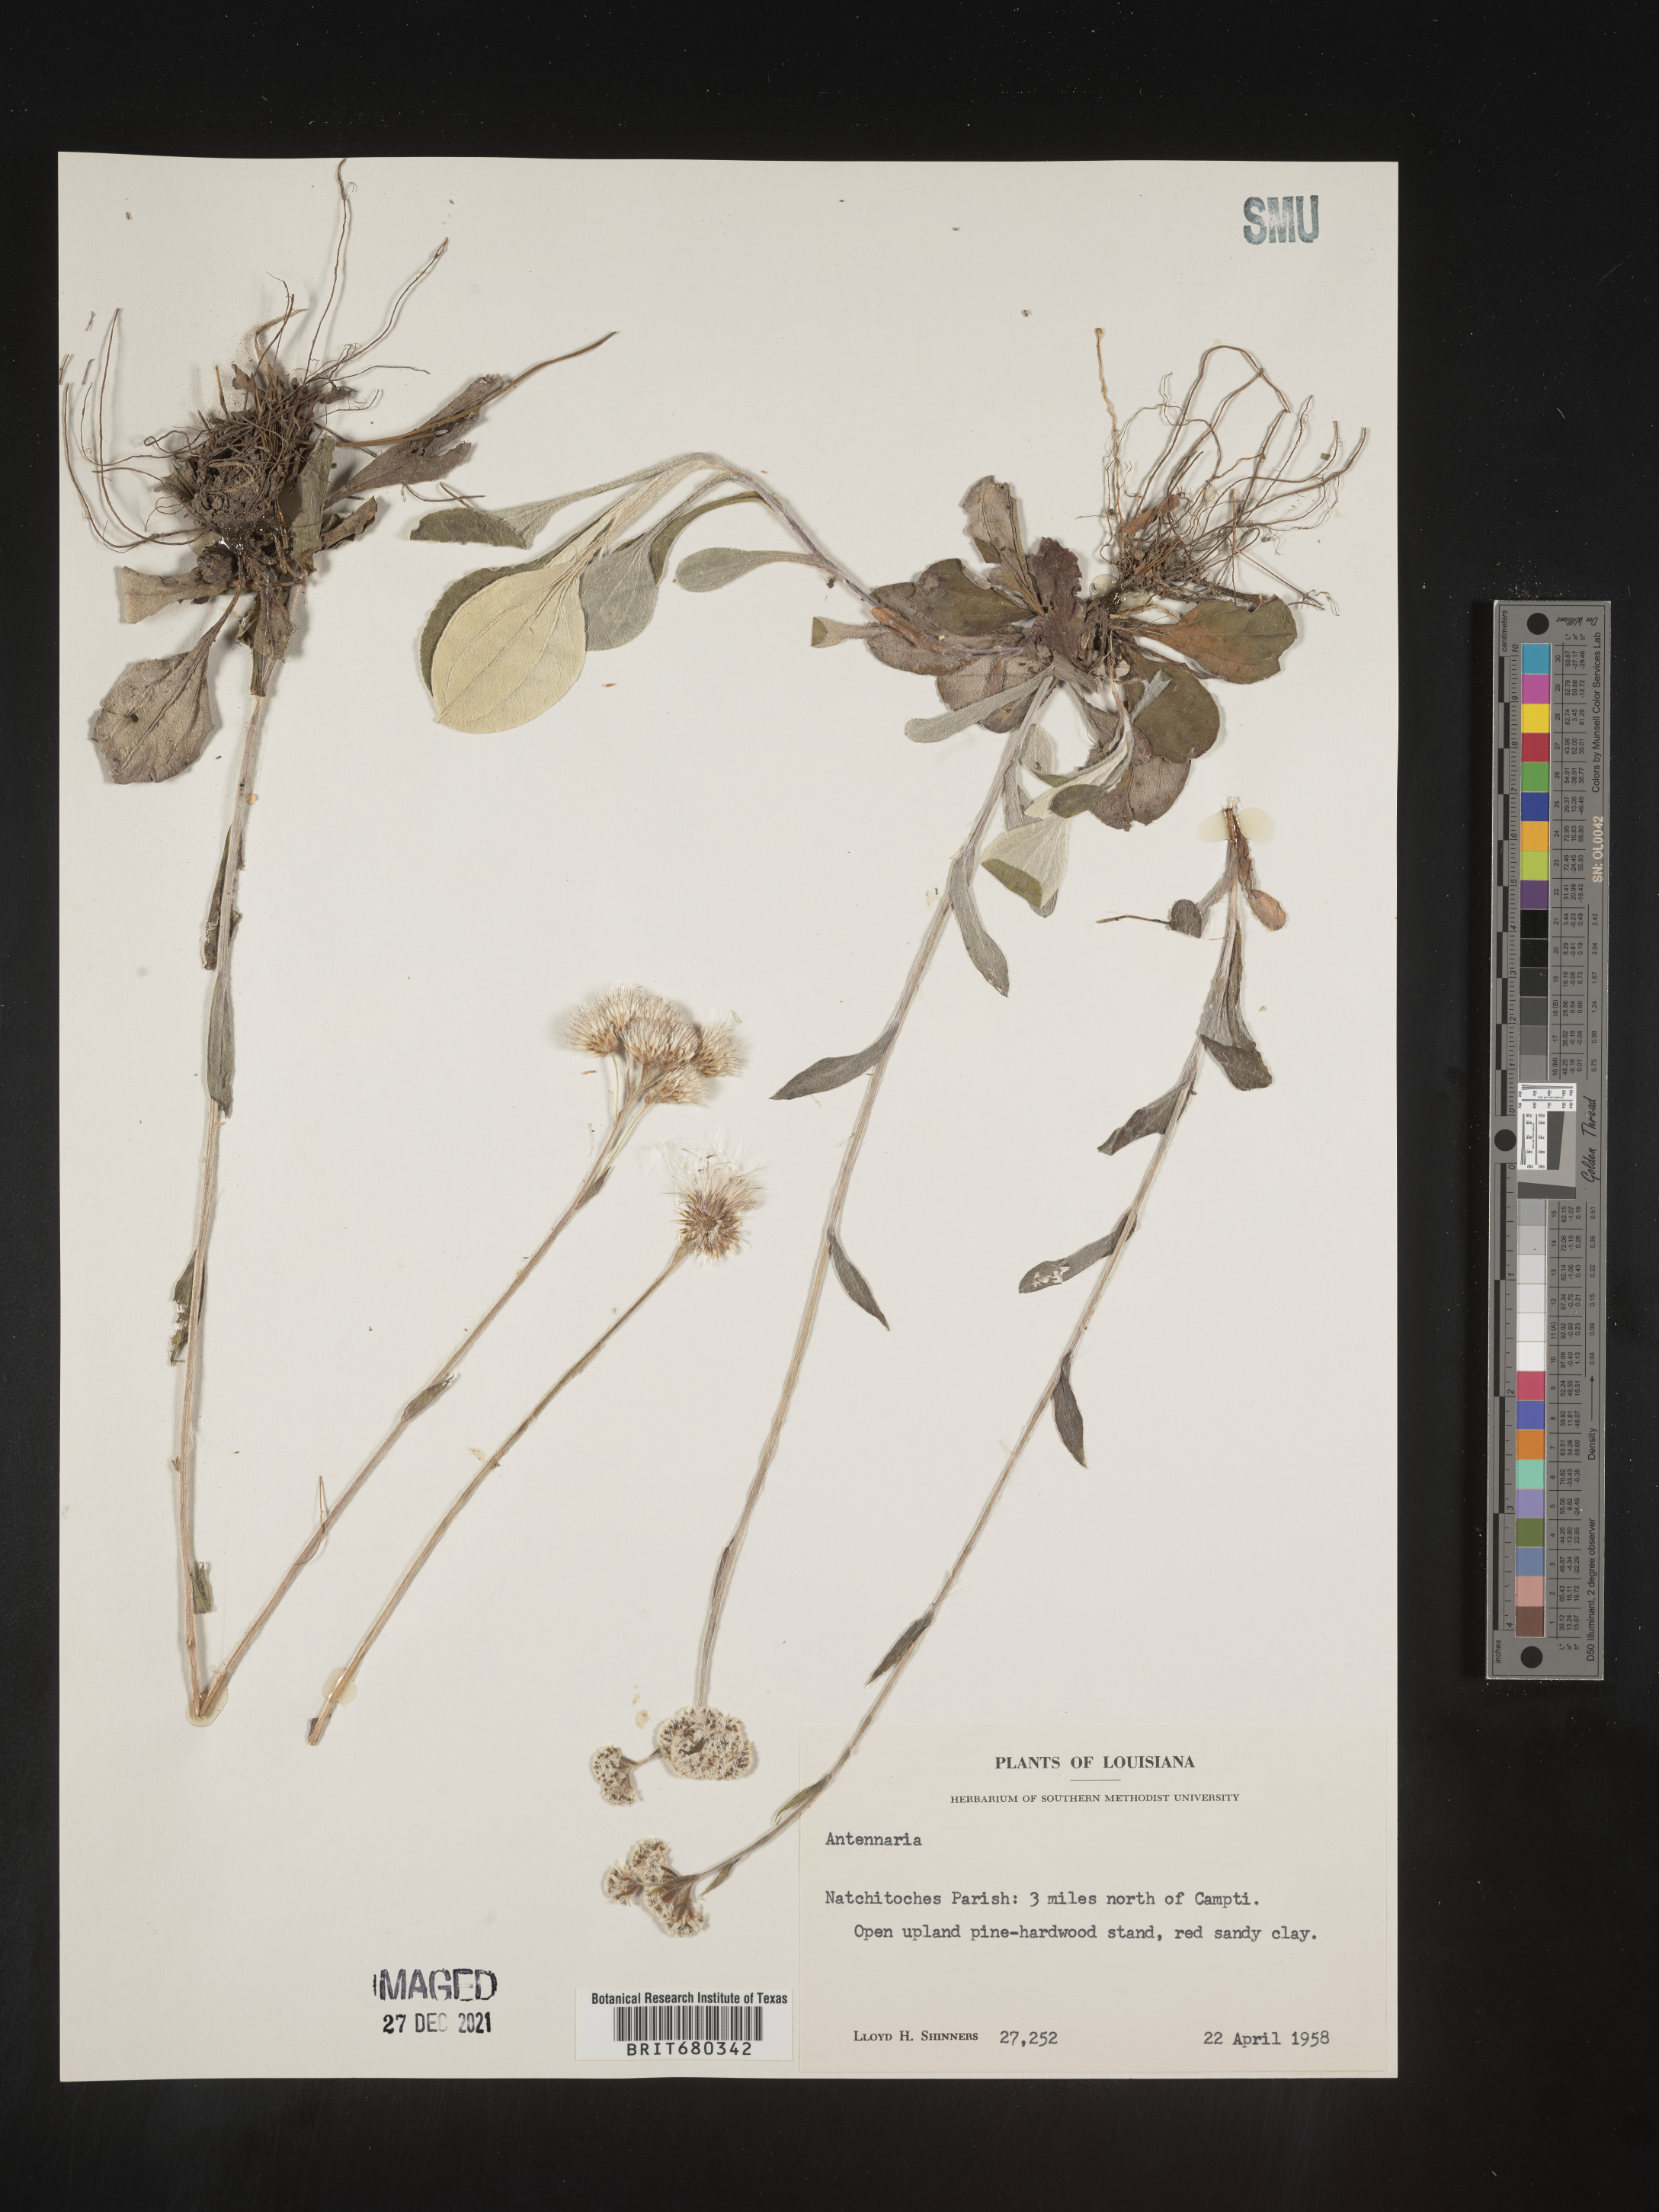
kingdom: Plantae
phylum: Tracheophyta
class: Magnoliopsida
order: Asterales
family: Asteraceae
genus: Antennaria
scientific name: Antennaria
